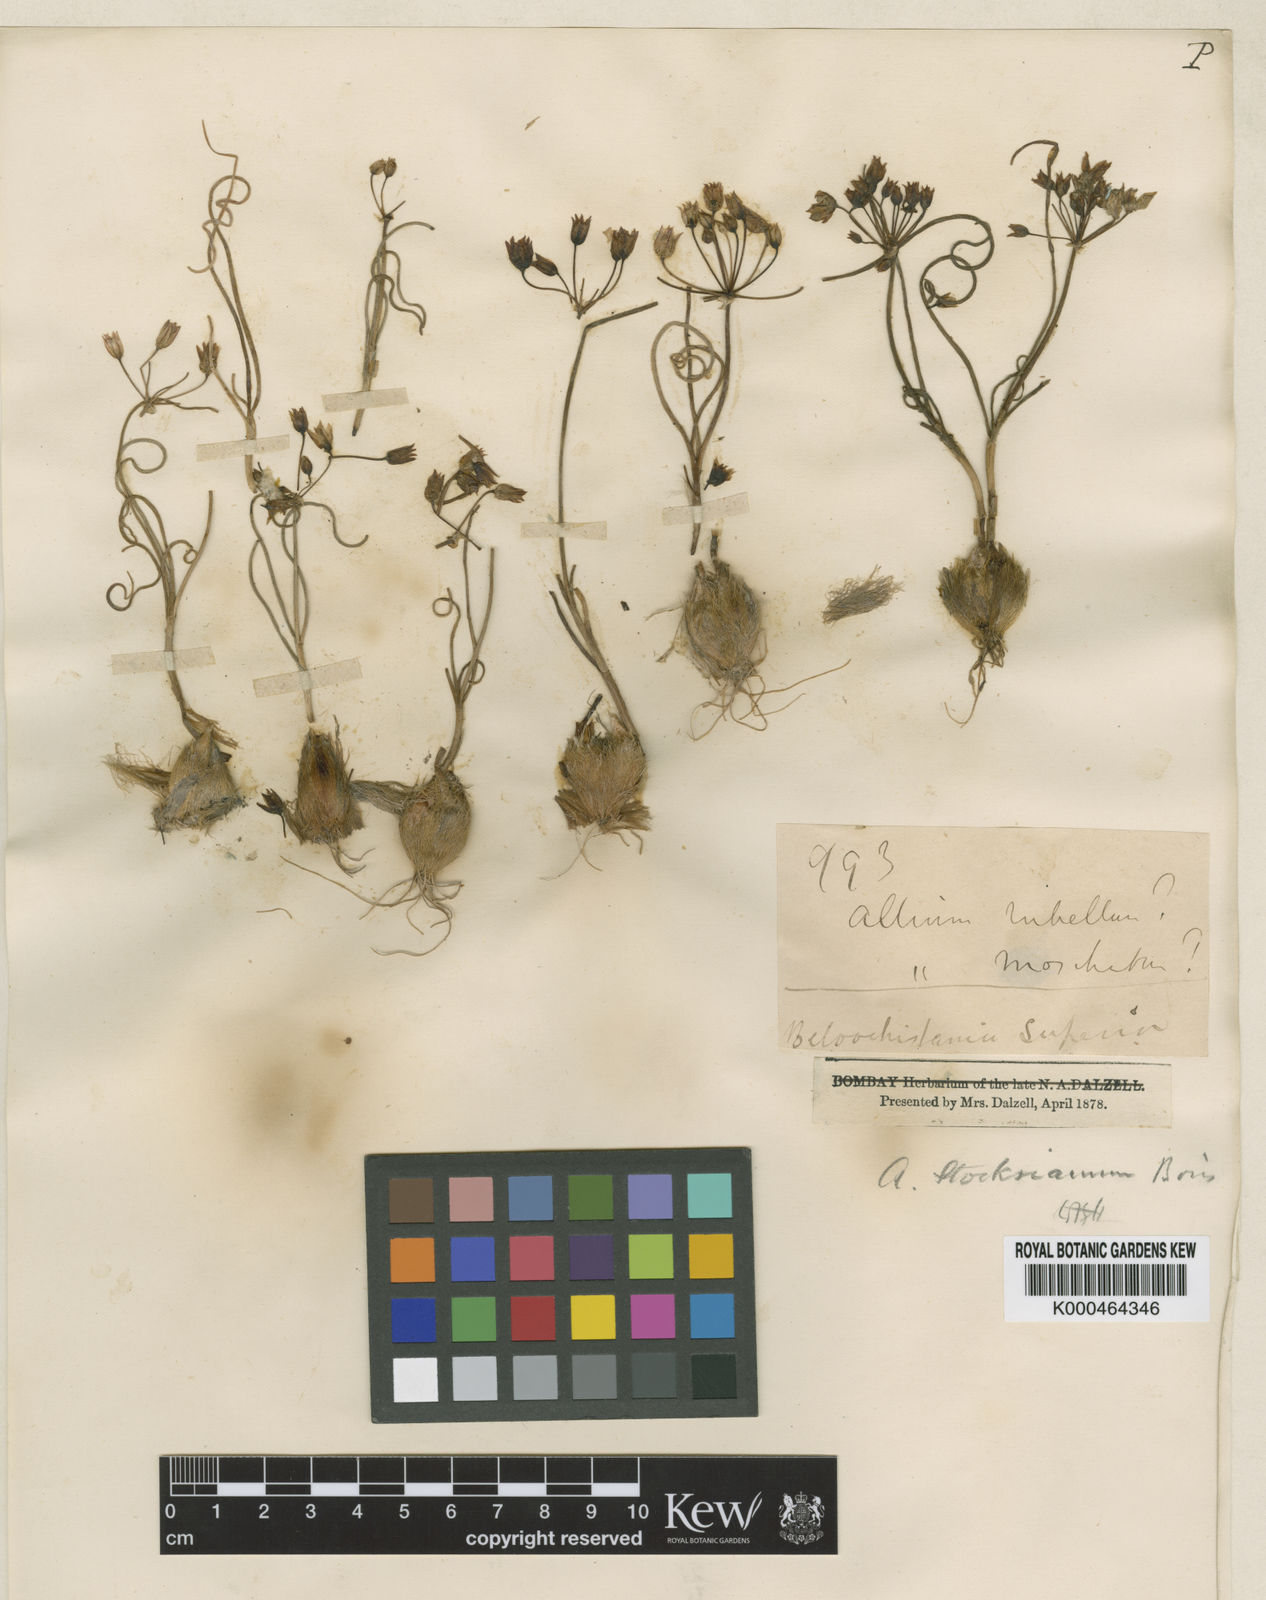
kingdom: Plantae
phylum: Tracheophyta
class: Liliopsida
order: Asparagales
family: Amaryllidaceae
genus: Allium
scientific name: Allium stocksianum
